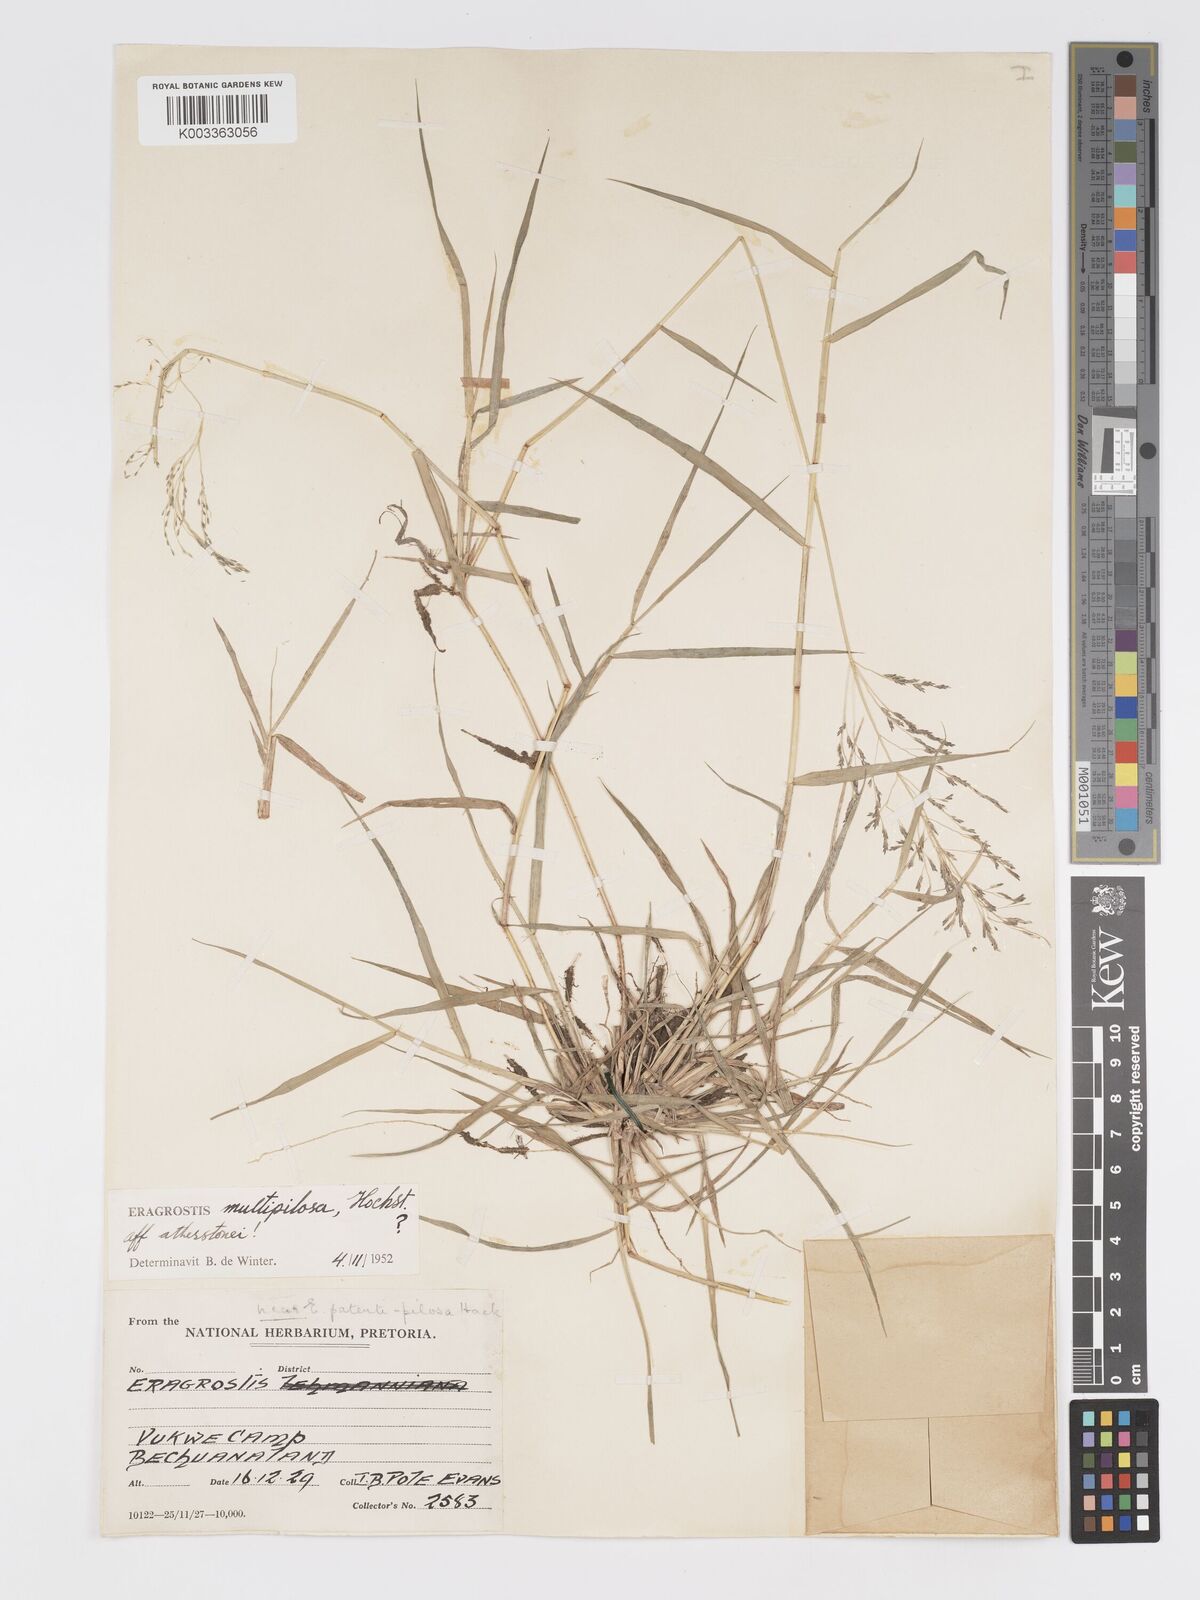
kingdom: Plantae
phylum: Tracheophyta
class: Liliopsida
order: Poales
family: Poaceae
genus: Eragrostis
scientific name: Eragrostis cylindriflora
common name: Cylinderflower lovegrass
